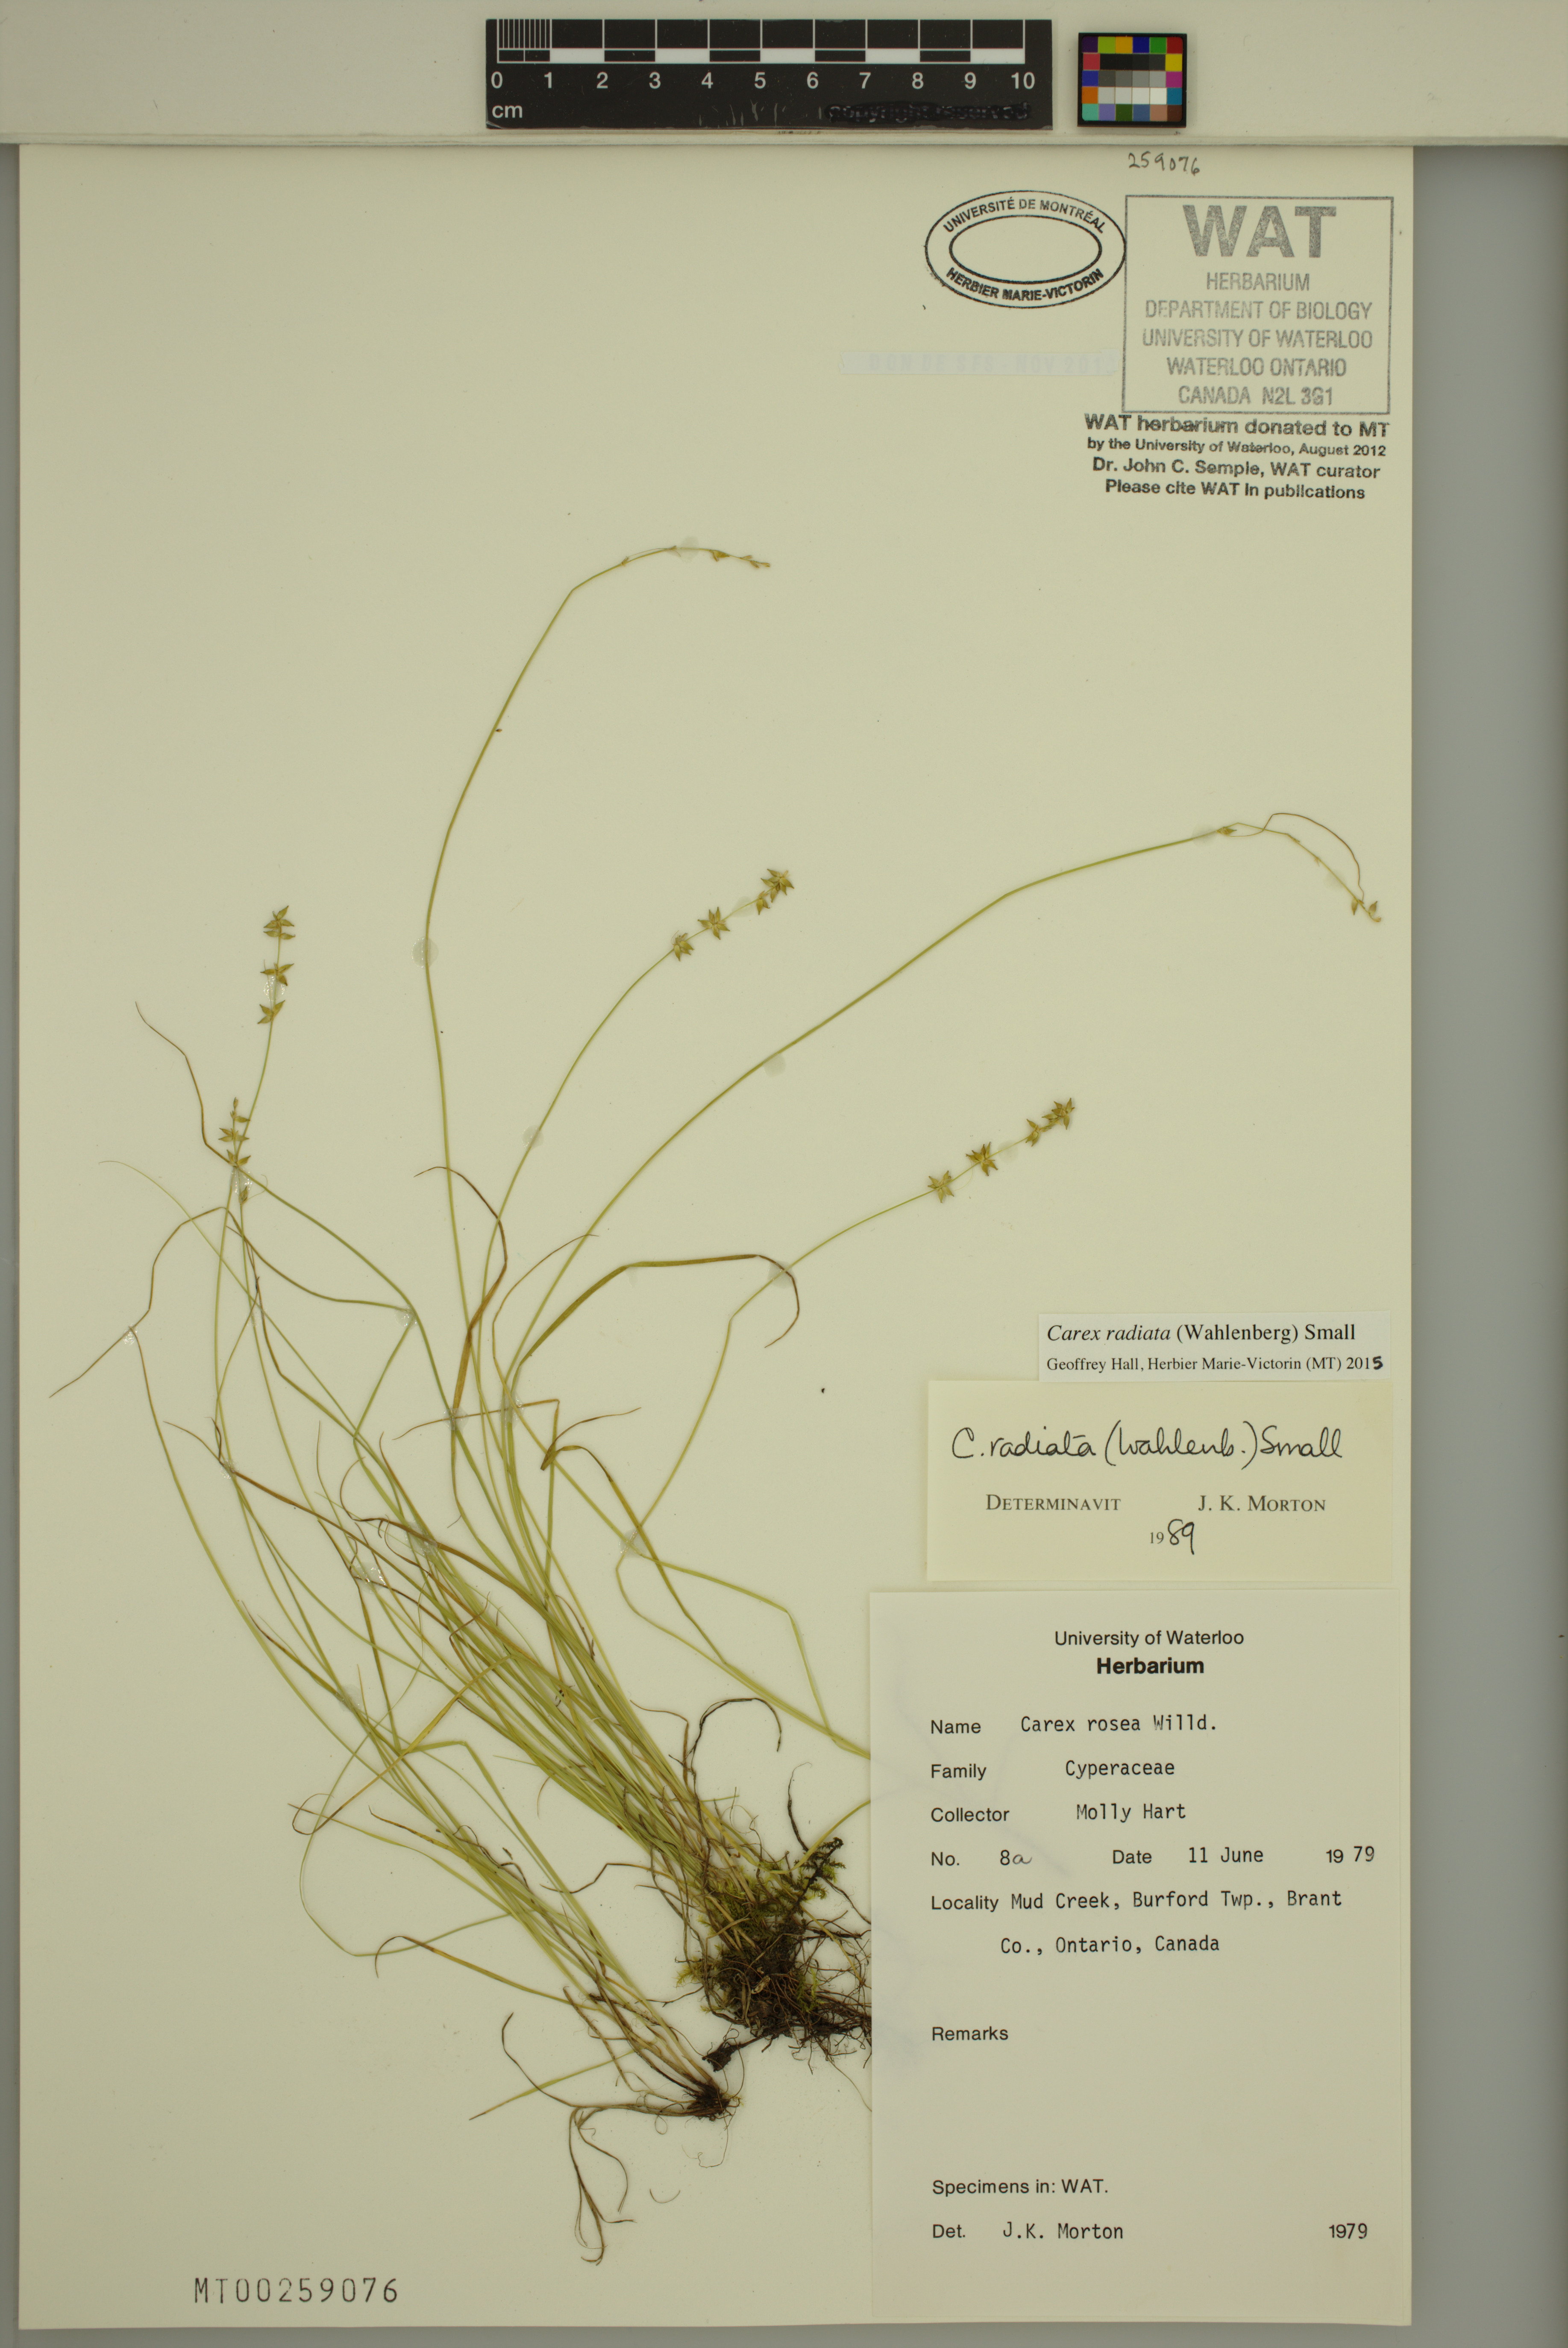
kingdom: Plantae
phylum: Tracheophyta
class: Liliopsida
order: Poales
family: Cyperaceae
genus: Carex
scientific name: Carex radiata
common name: Eastern star sedge
